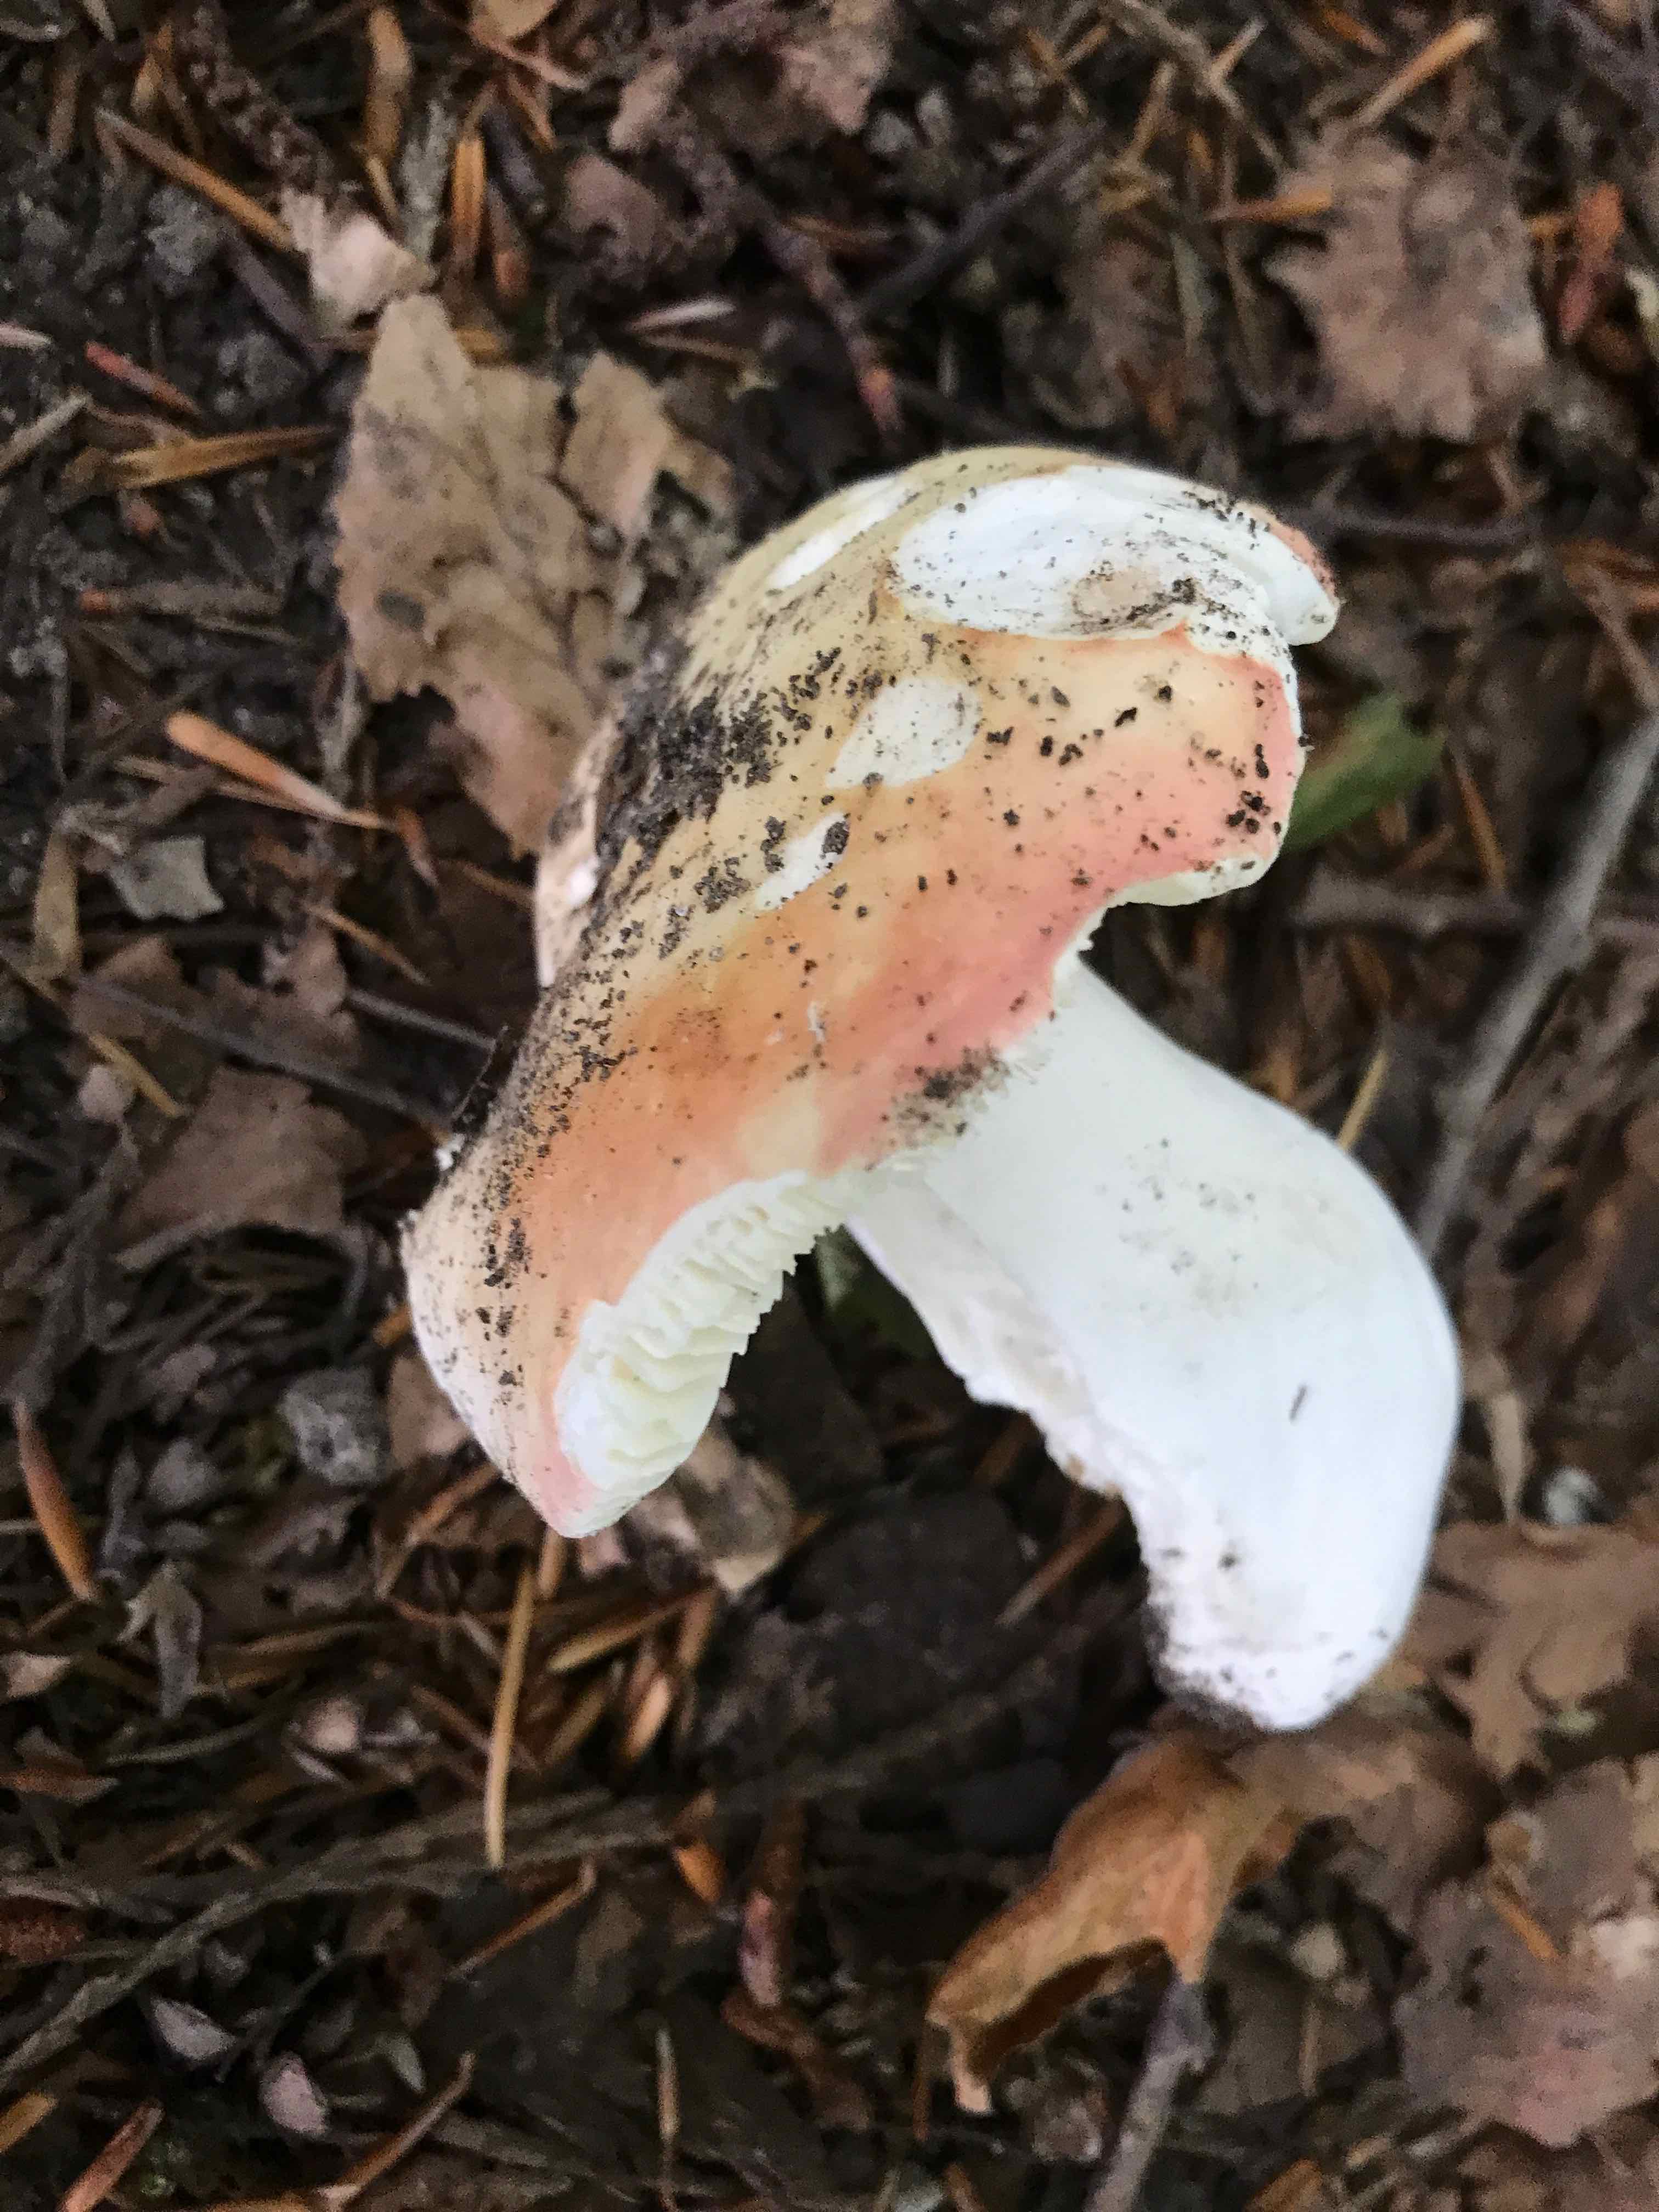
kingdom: Fungi
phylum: Basidiomycota
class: Agaricomycetes
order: Russulales
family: Russulaceae
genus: Russula
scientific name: Russula
